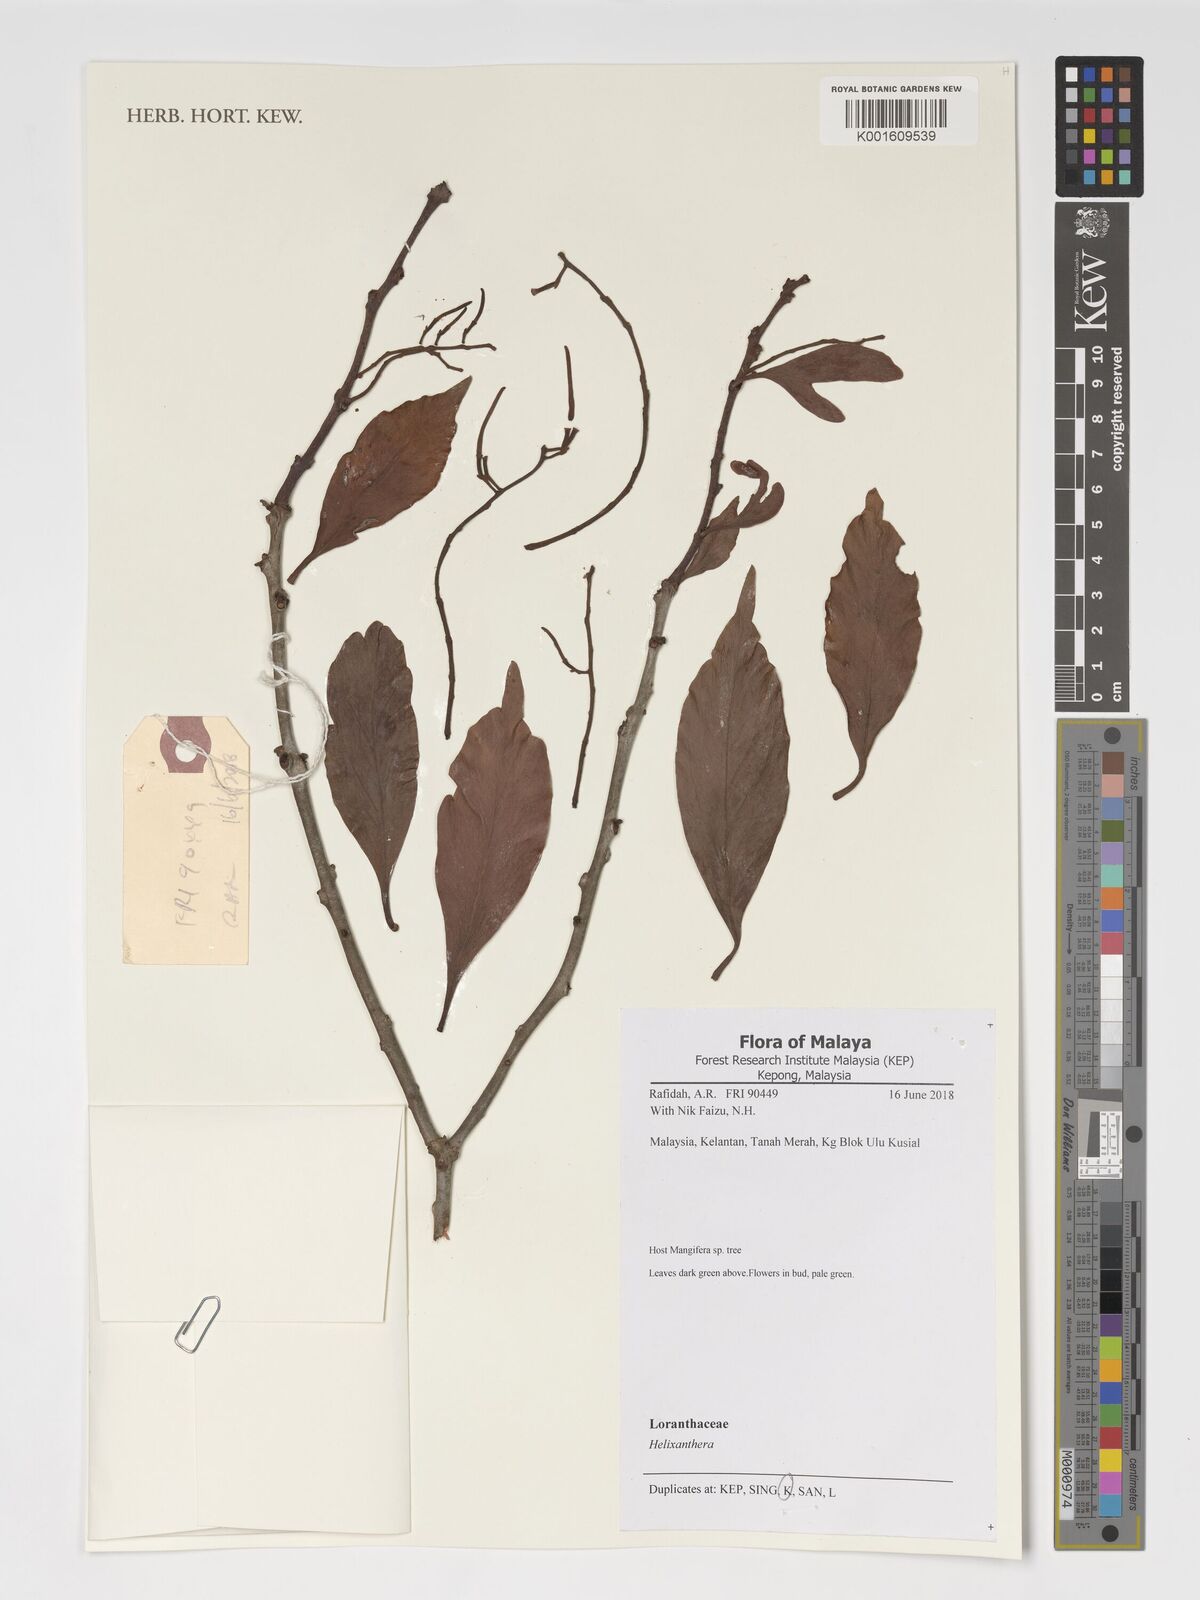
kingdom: Plantae
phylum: Tracheophyta
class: Magnoliopsida
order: Santalales
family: Loranthaceae
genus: Helixanthera
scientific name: Helixanthera
